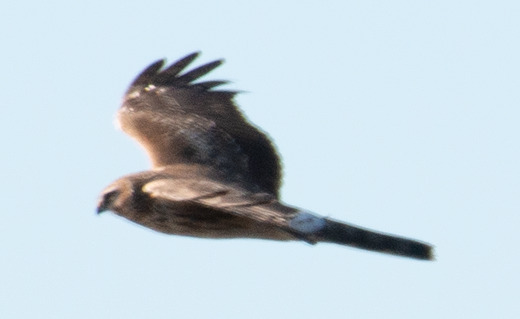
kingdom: Animalia
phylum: Chordata
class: Aves
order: Accipitriformes
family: Accipitridae
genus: Circus
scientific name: Circus cyaneus
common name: Blå kærhøg
